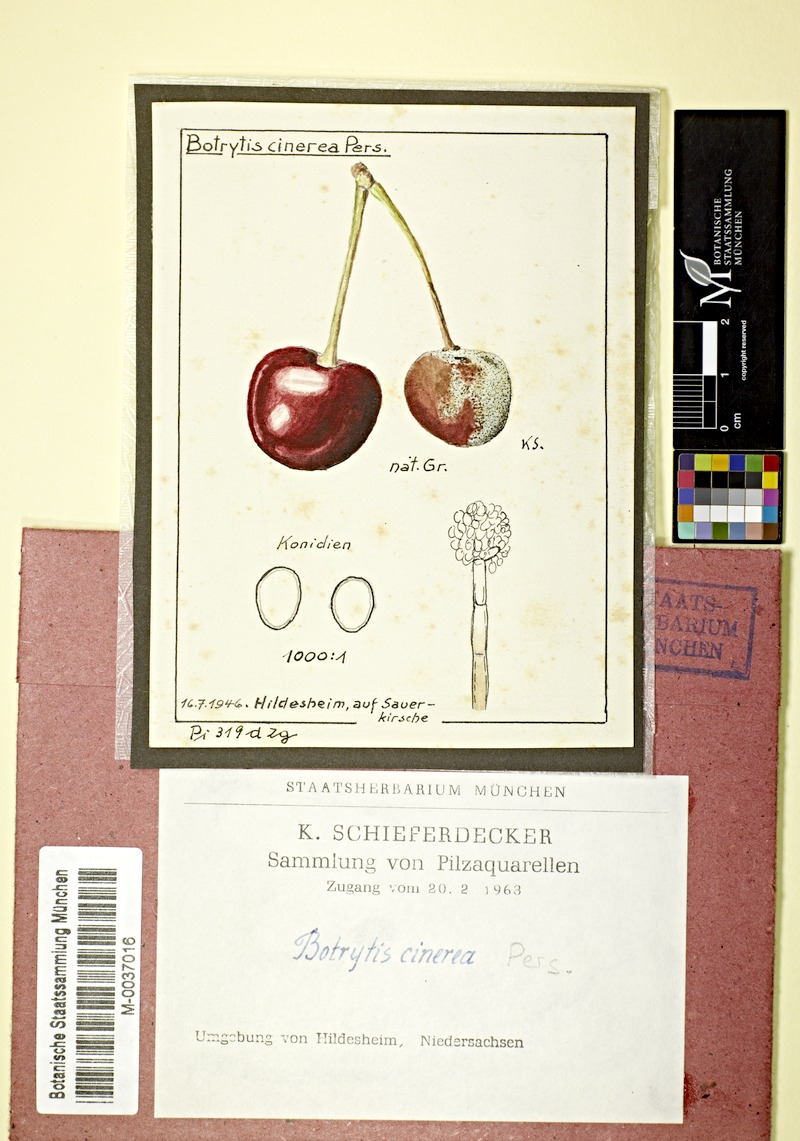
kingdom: Plantae
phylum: Tracheophyta
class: Magnoliopsida
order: Rosales
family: Rosaceae
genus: Prunus
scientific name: Prunus cerasus
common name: Morello cherry
